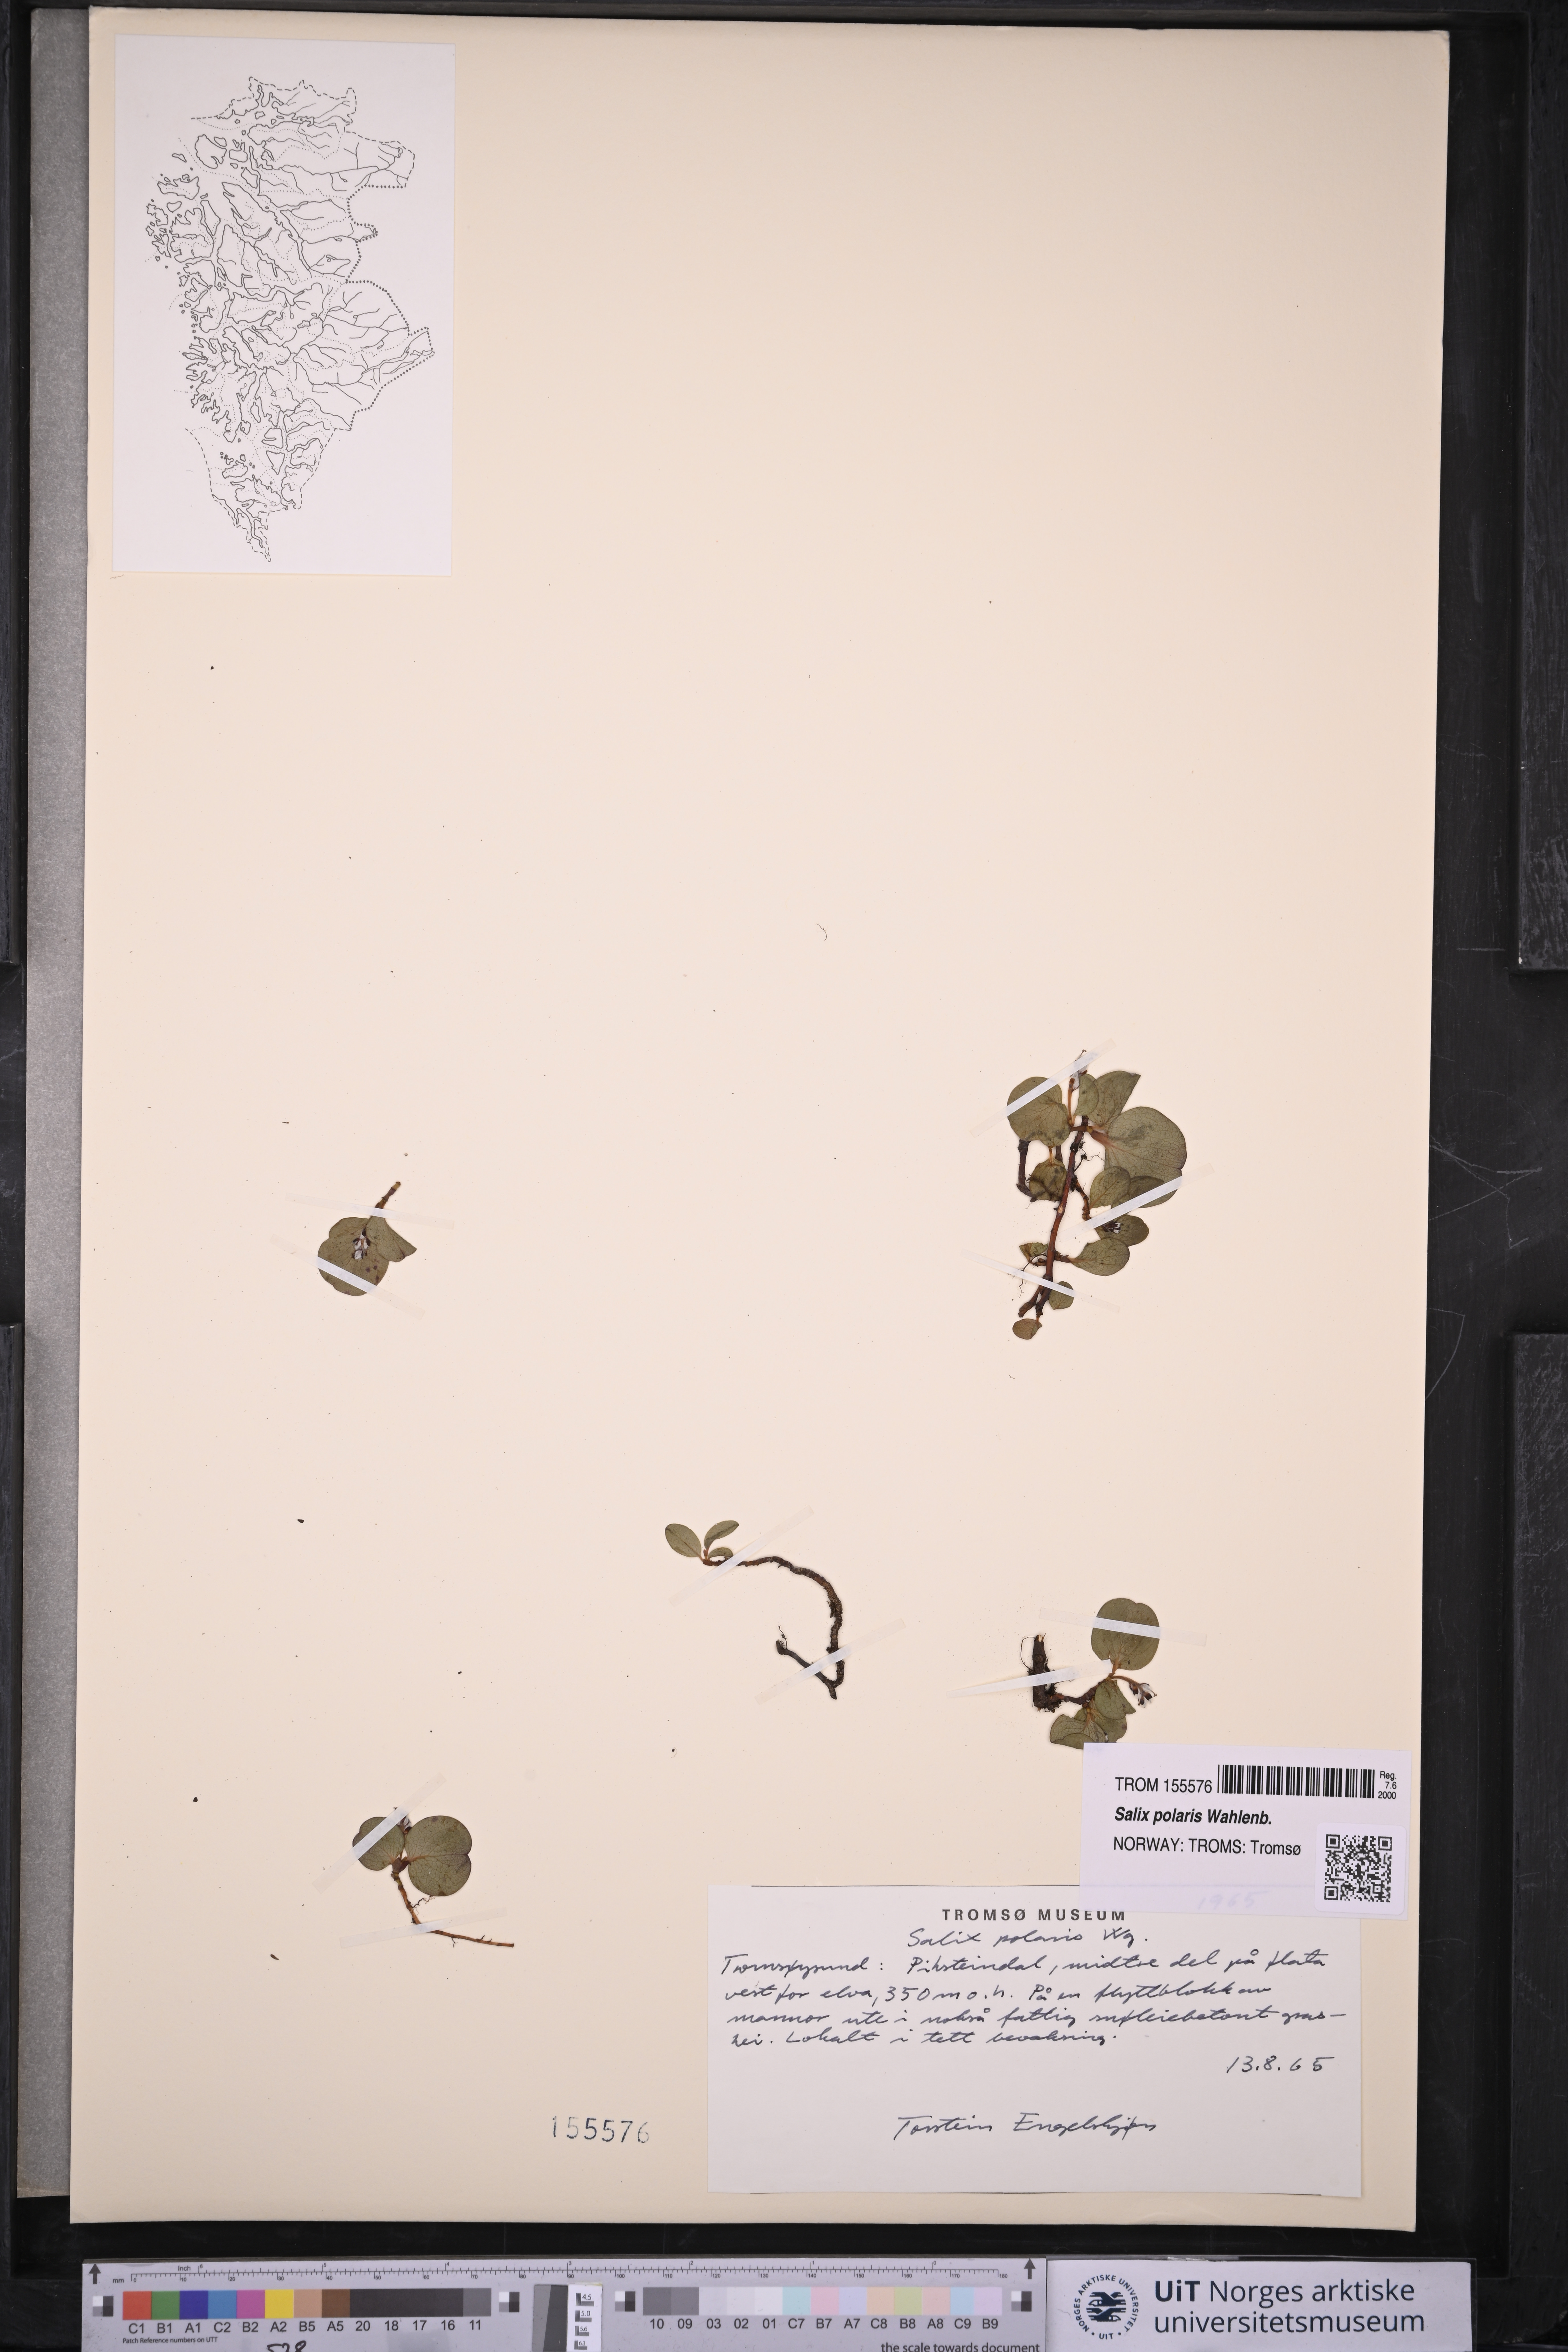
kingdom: Plantae
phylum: Tracheophyta
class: Magnoliopsida
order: Malpighiales
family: Salicaceae
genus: Salix
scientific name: Salix polaris
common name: Polar willow
